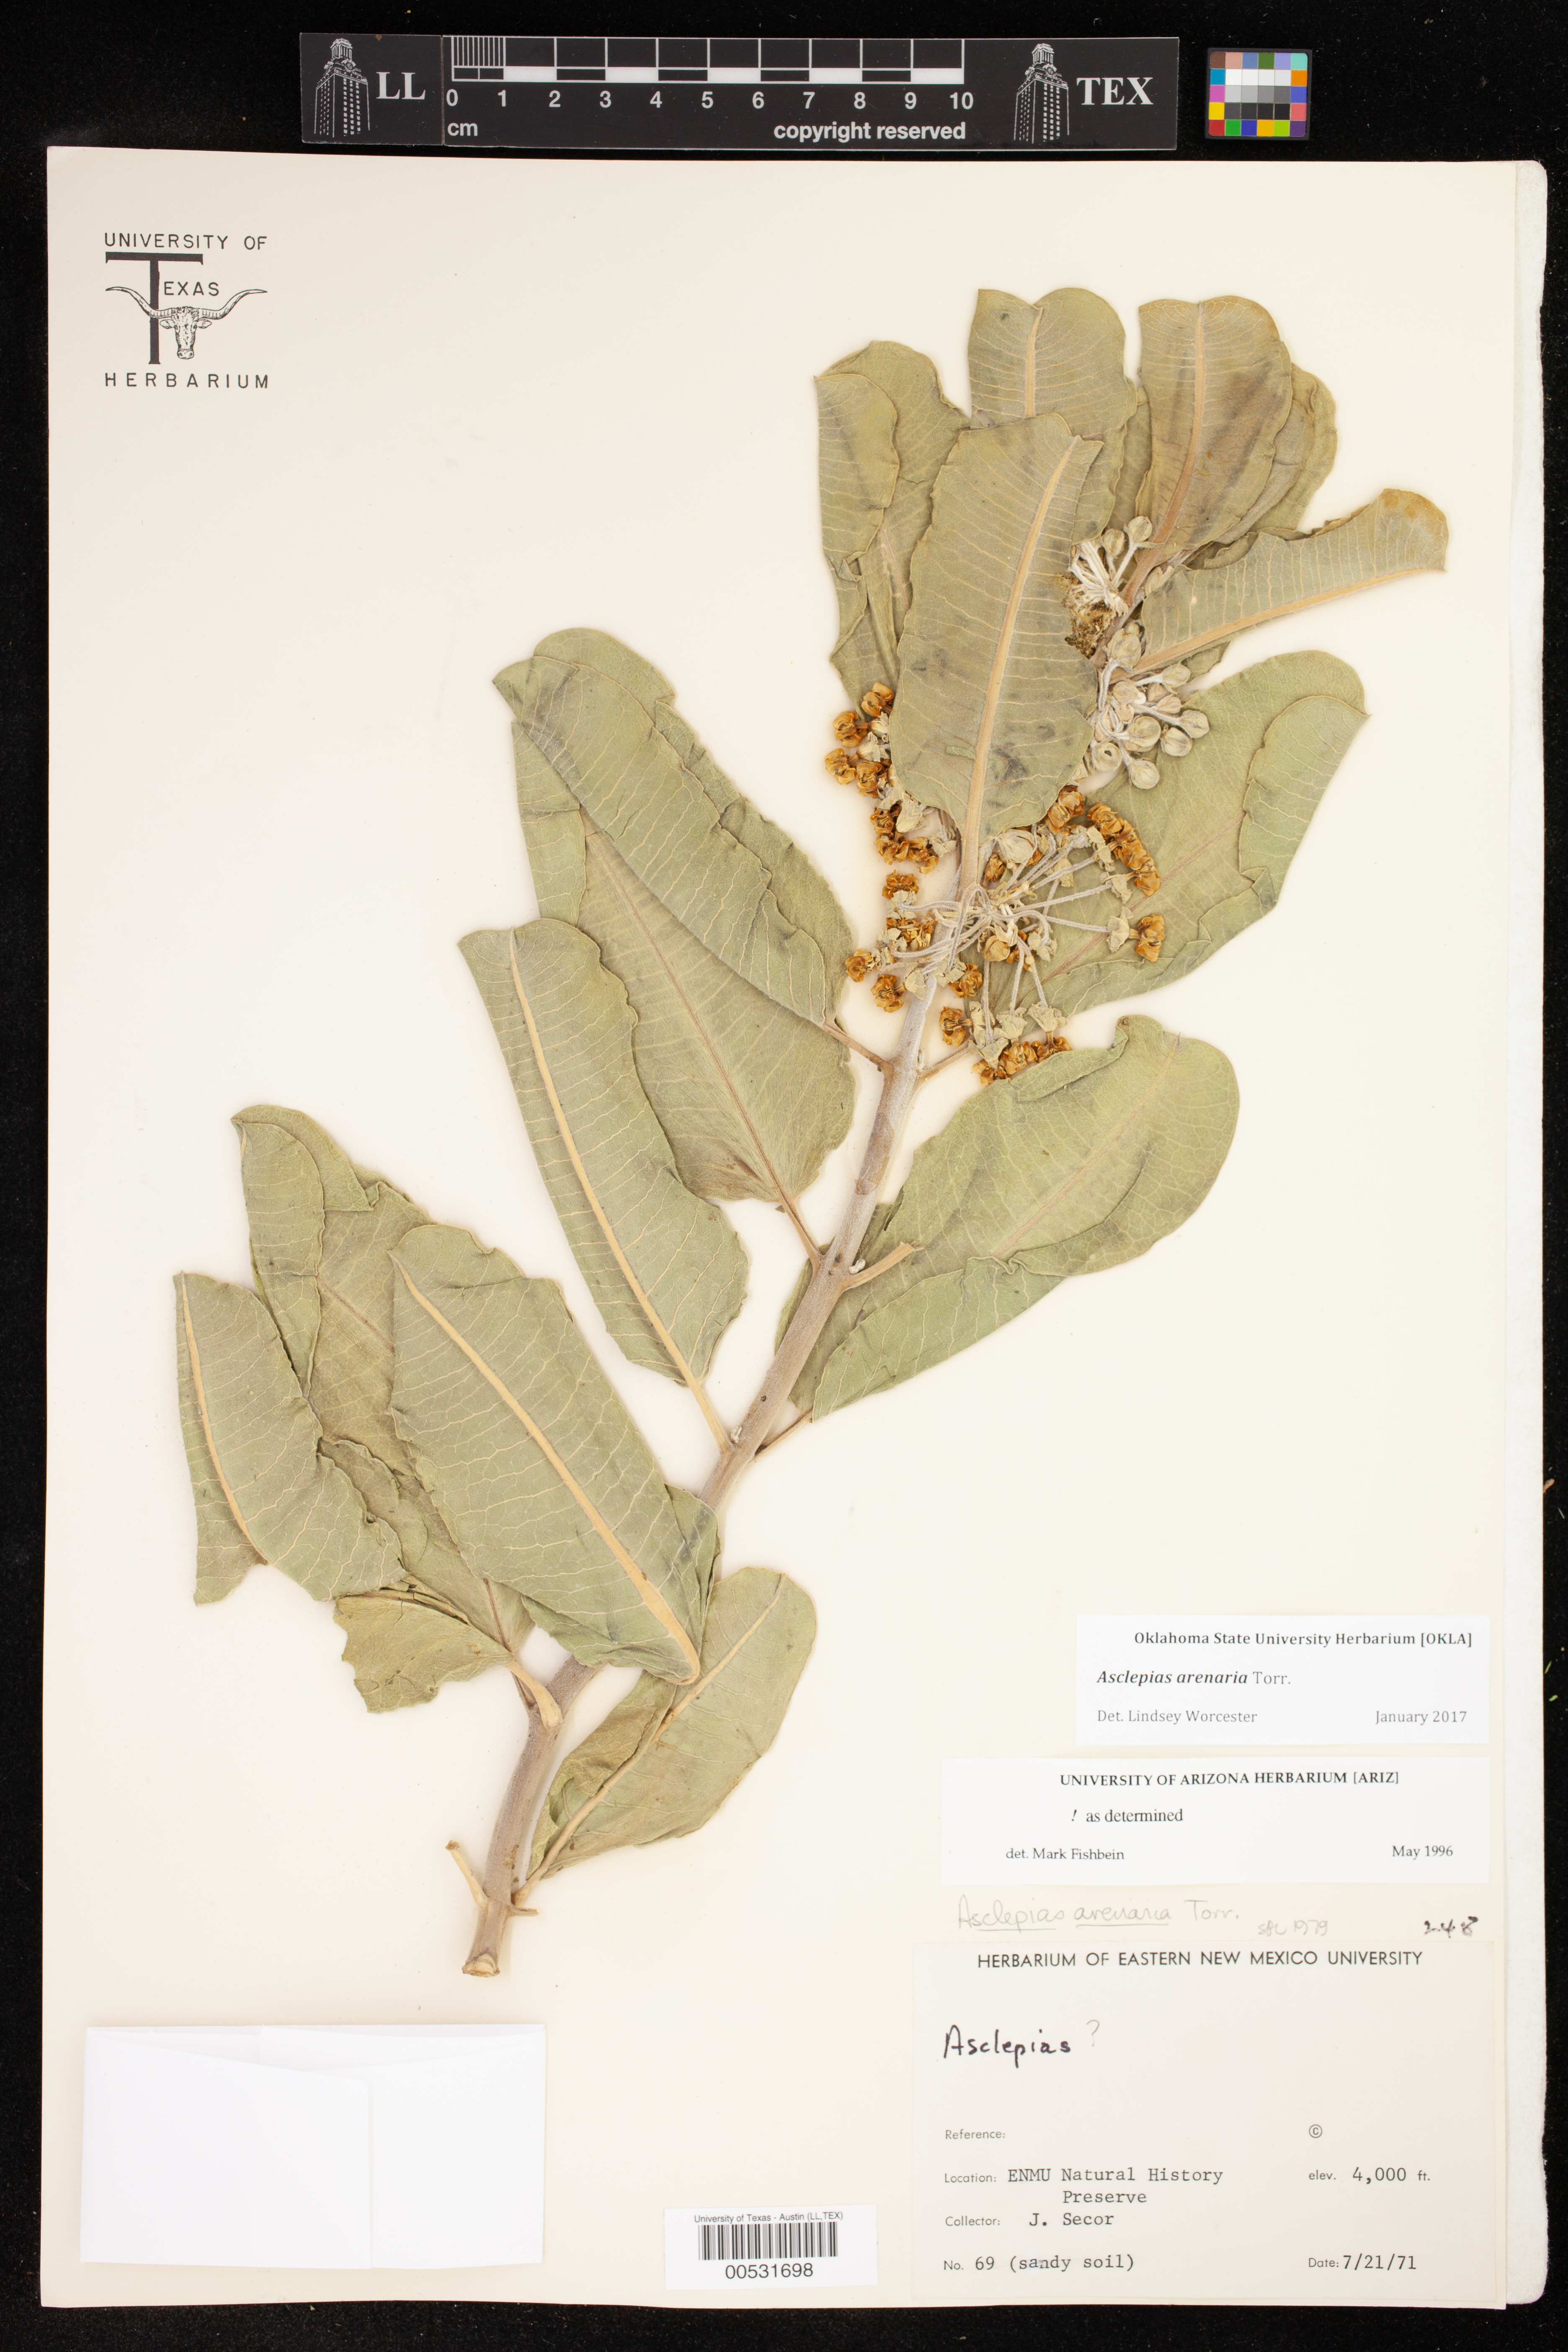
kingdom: Plantae
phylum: Tracheophyta
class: Magnoliopsida
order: Gentianales
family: Apocynaceae
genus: Asclepias
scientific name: Asclepias arenaria
